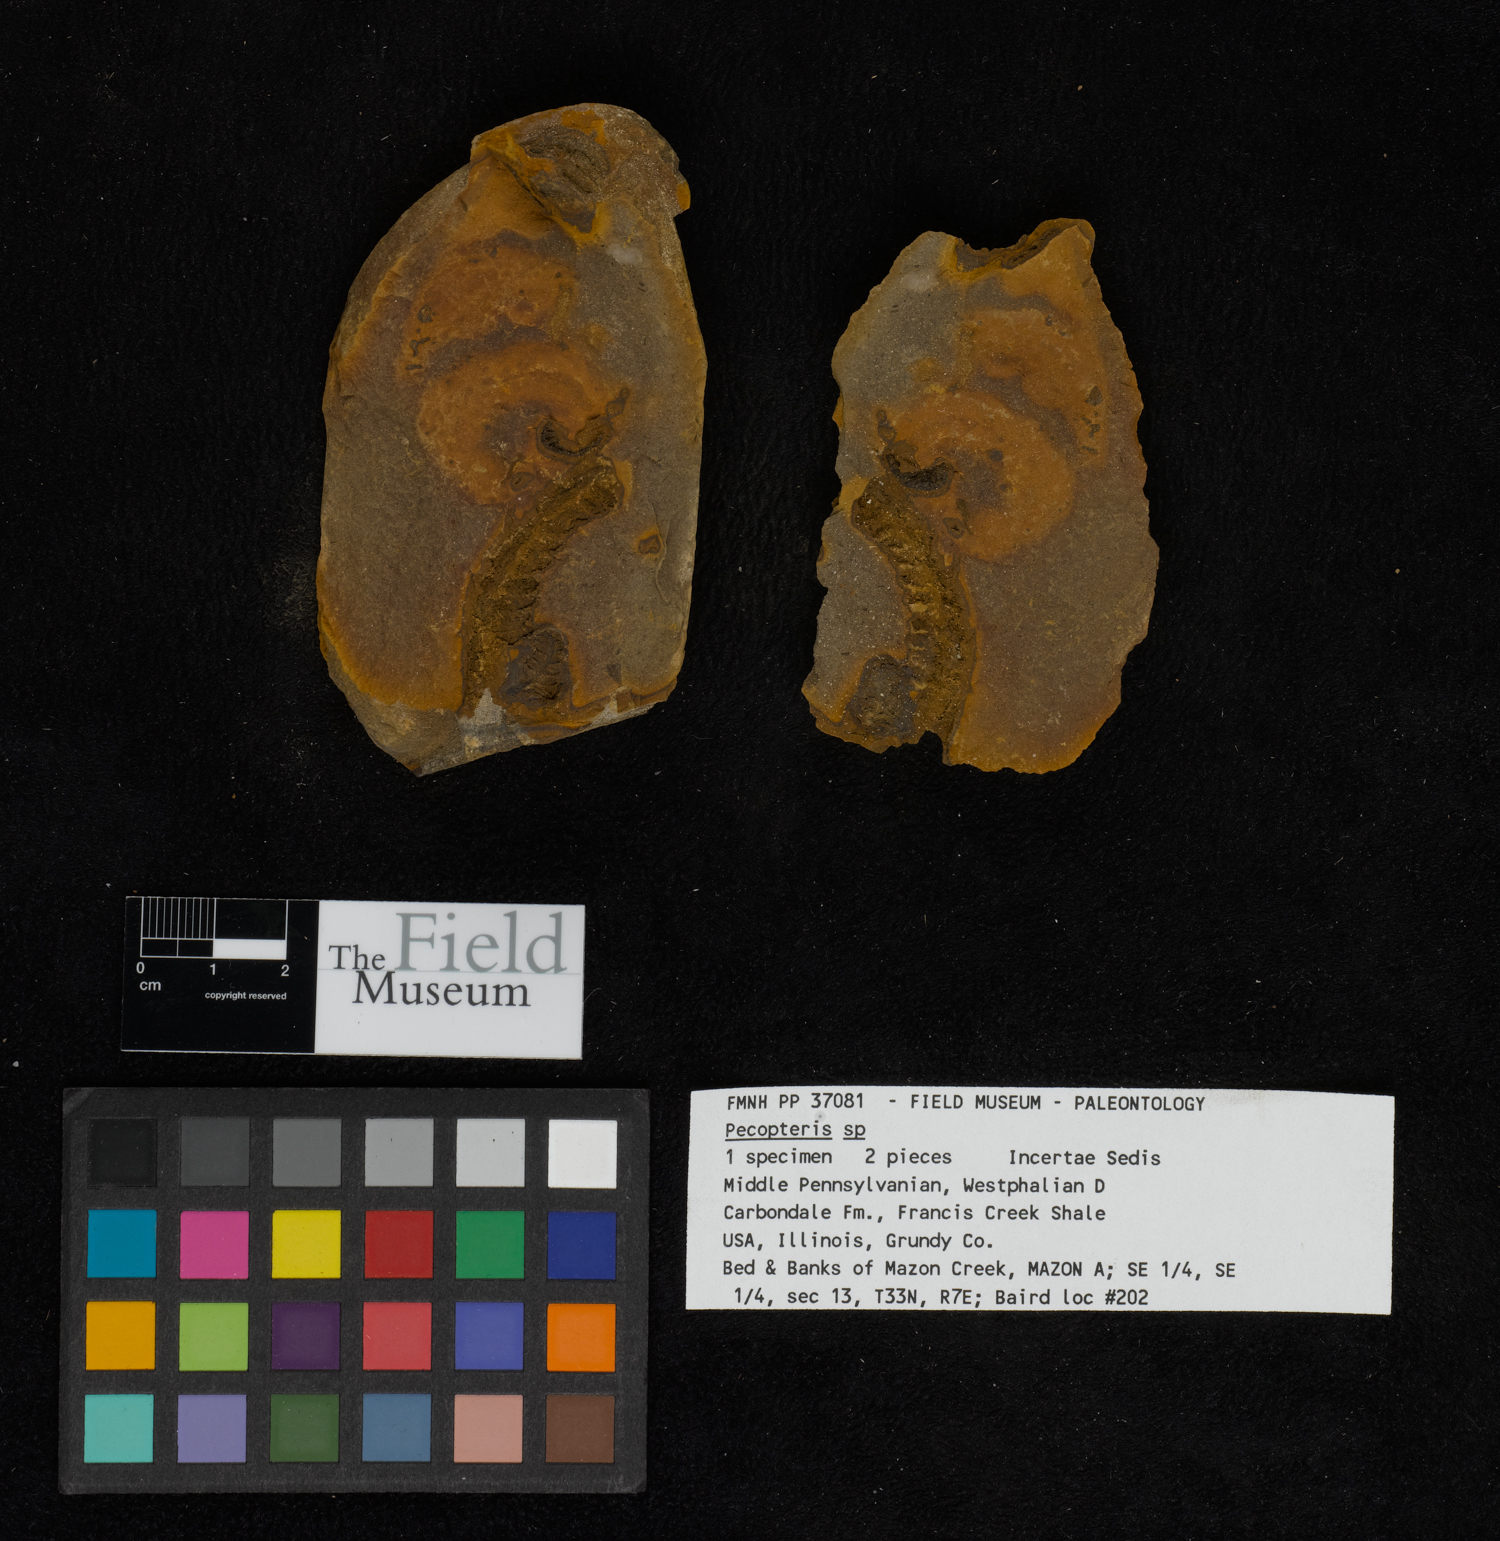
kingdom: Plantae
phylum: Tracheophyta
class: Polypodiopsida
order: Marattiales
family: Asterothecaceae
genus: Pecopteris
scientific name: Pecopteris
